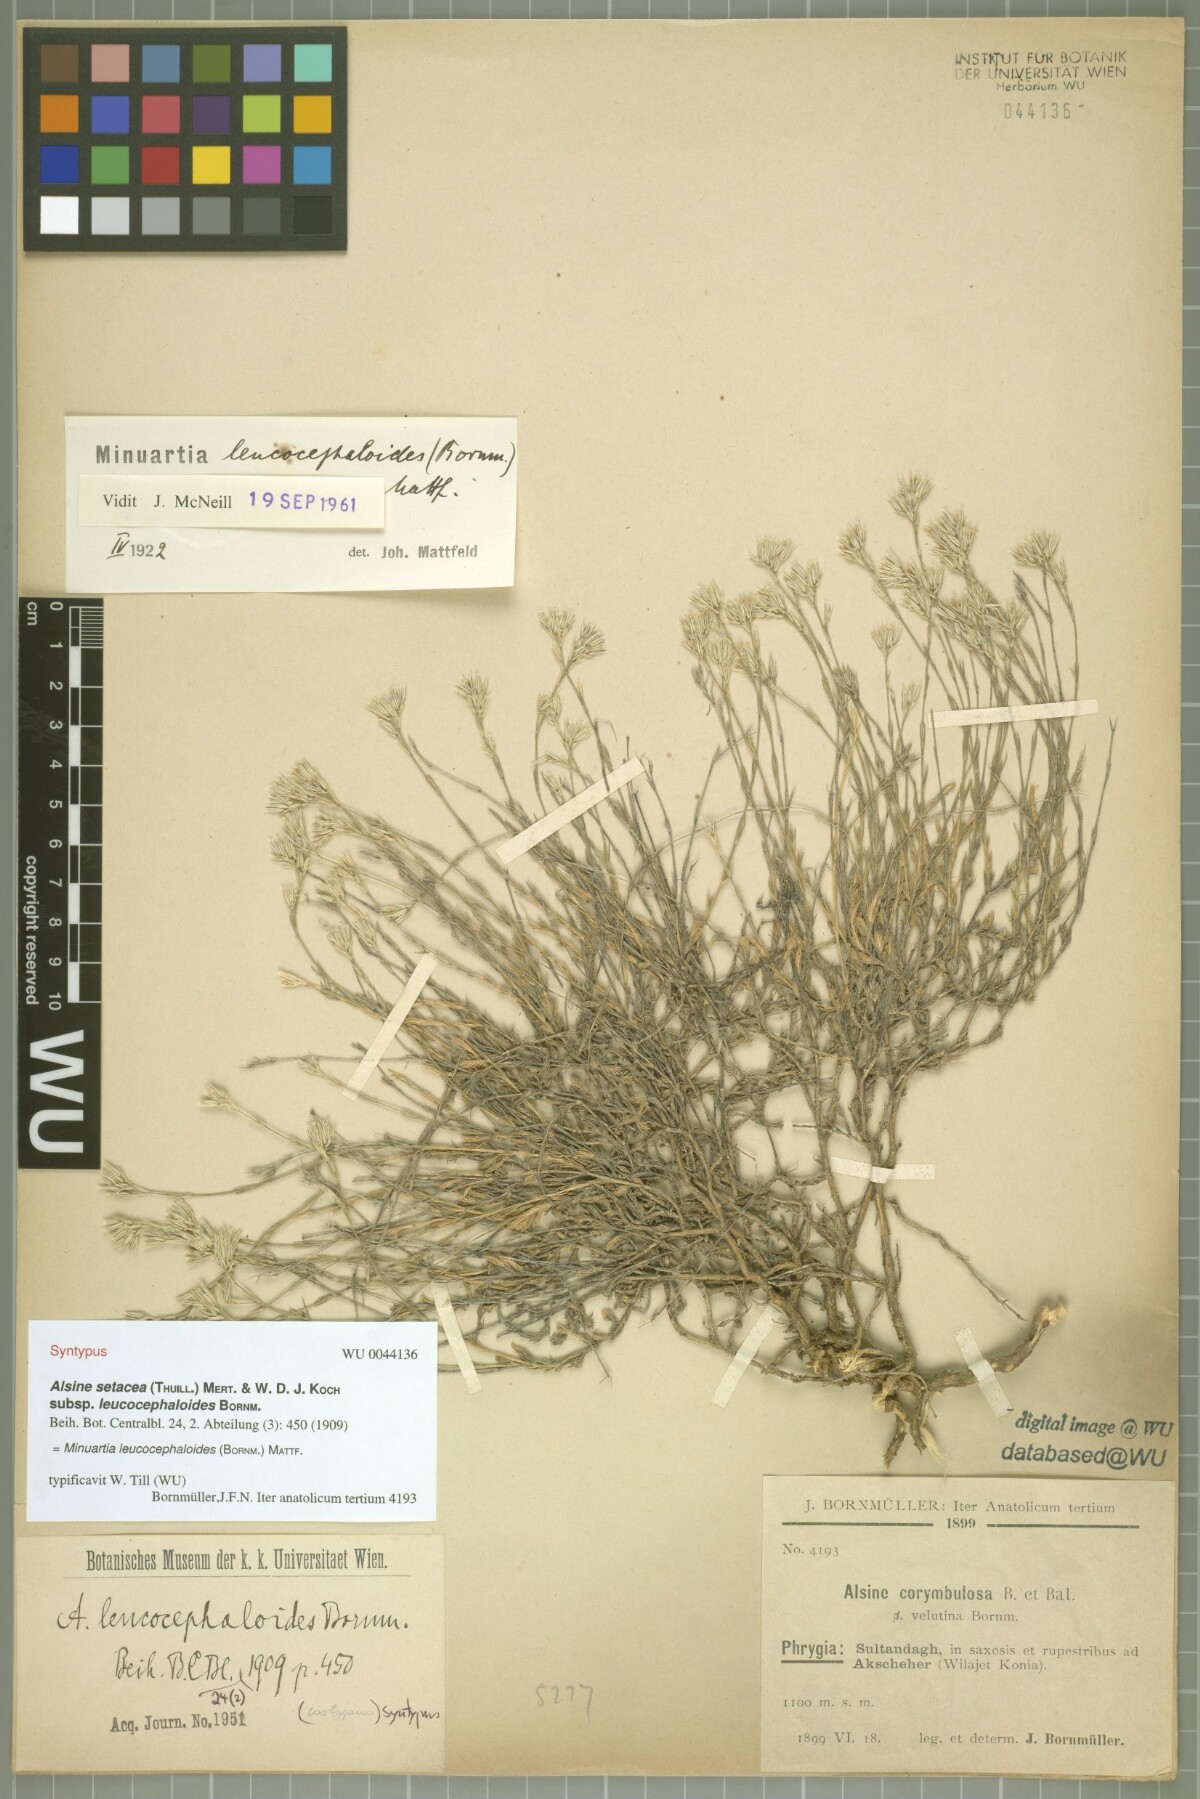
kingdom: Plantae
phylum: Tracheophyta
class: Magnoliopsida
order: Caryophyllales
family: Caryophyllaceae
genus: Minuartia
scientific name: Minuartia leucocephaloides
